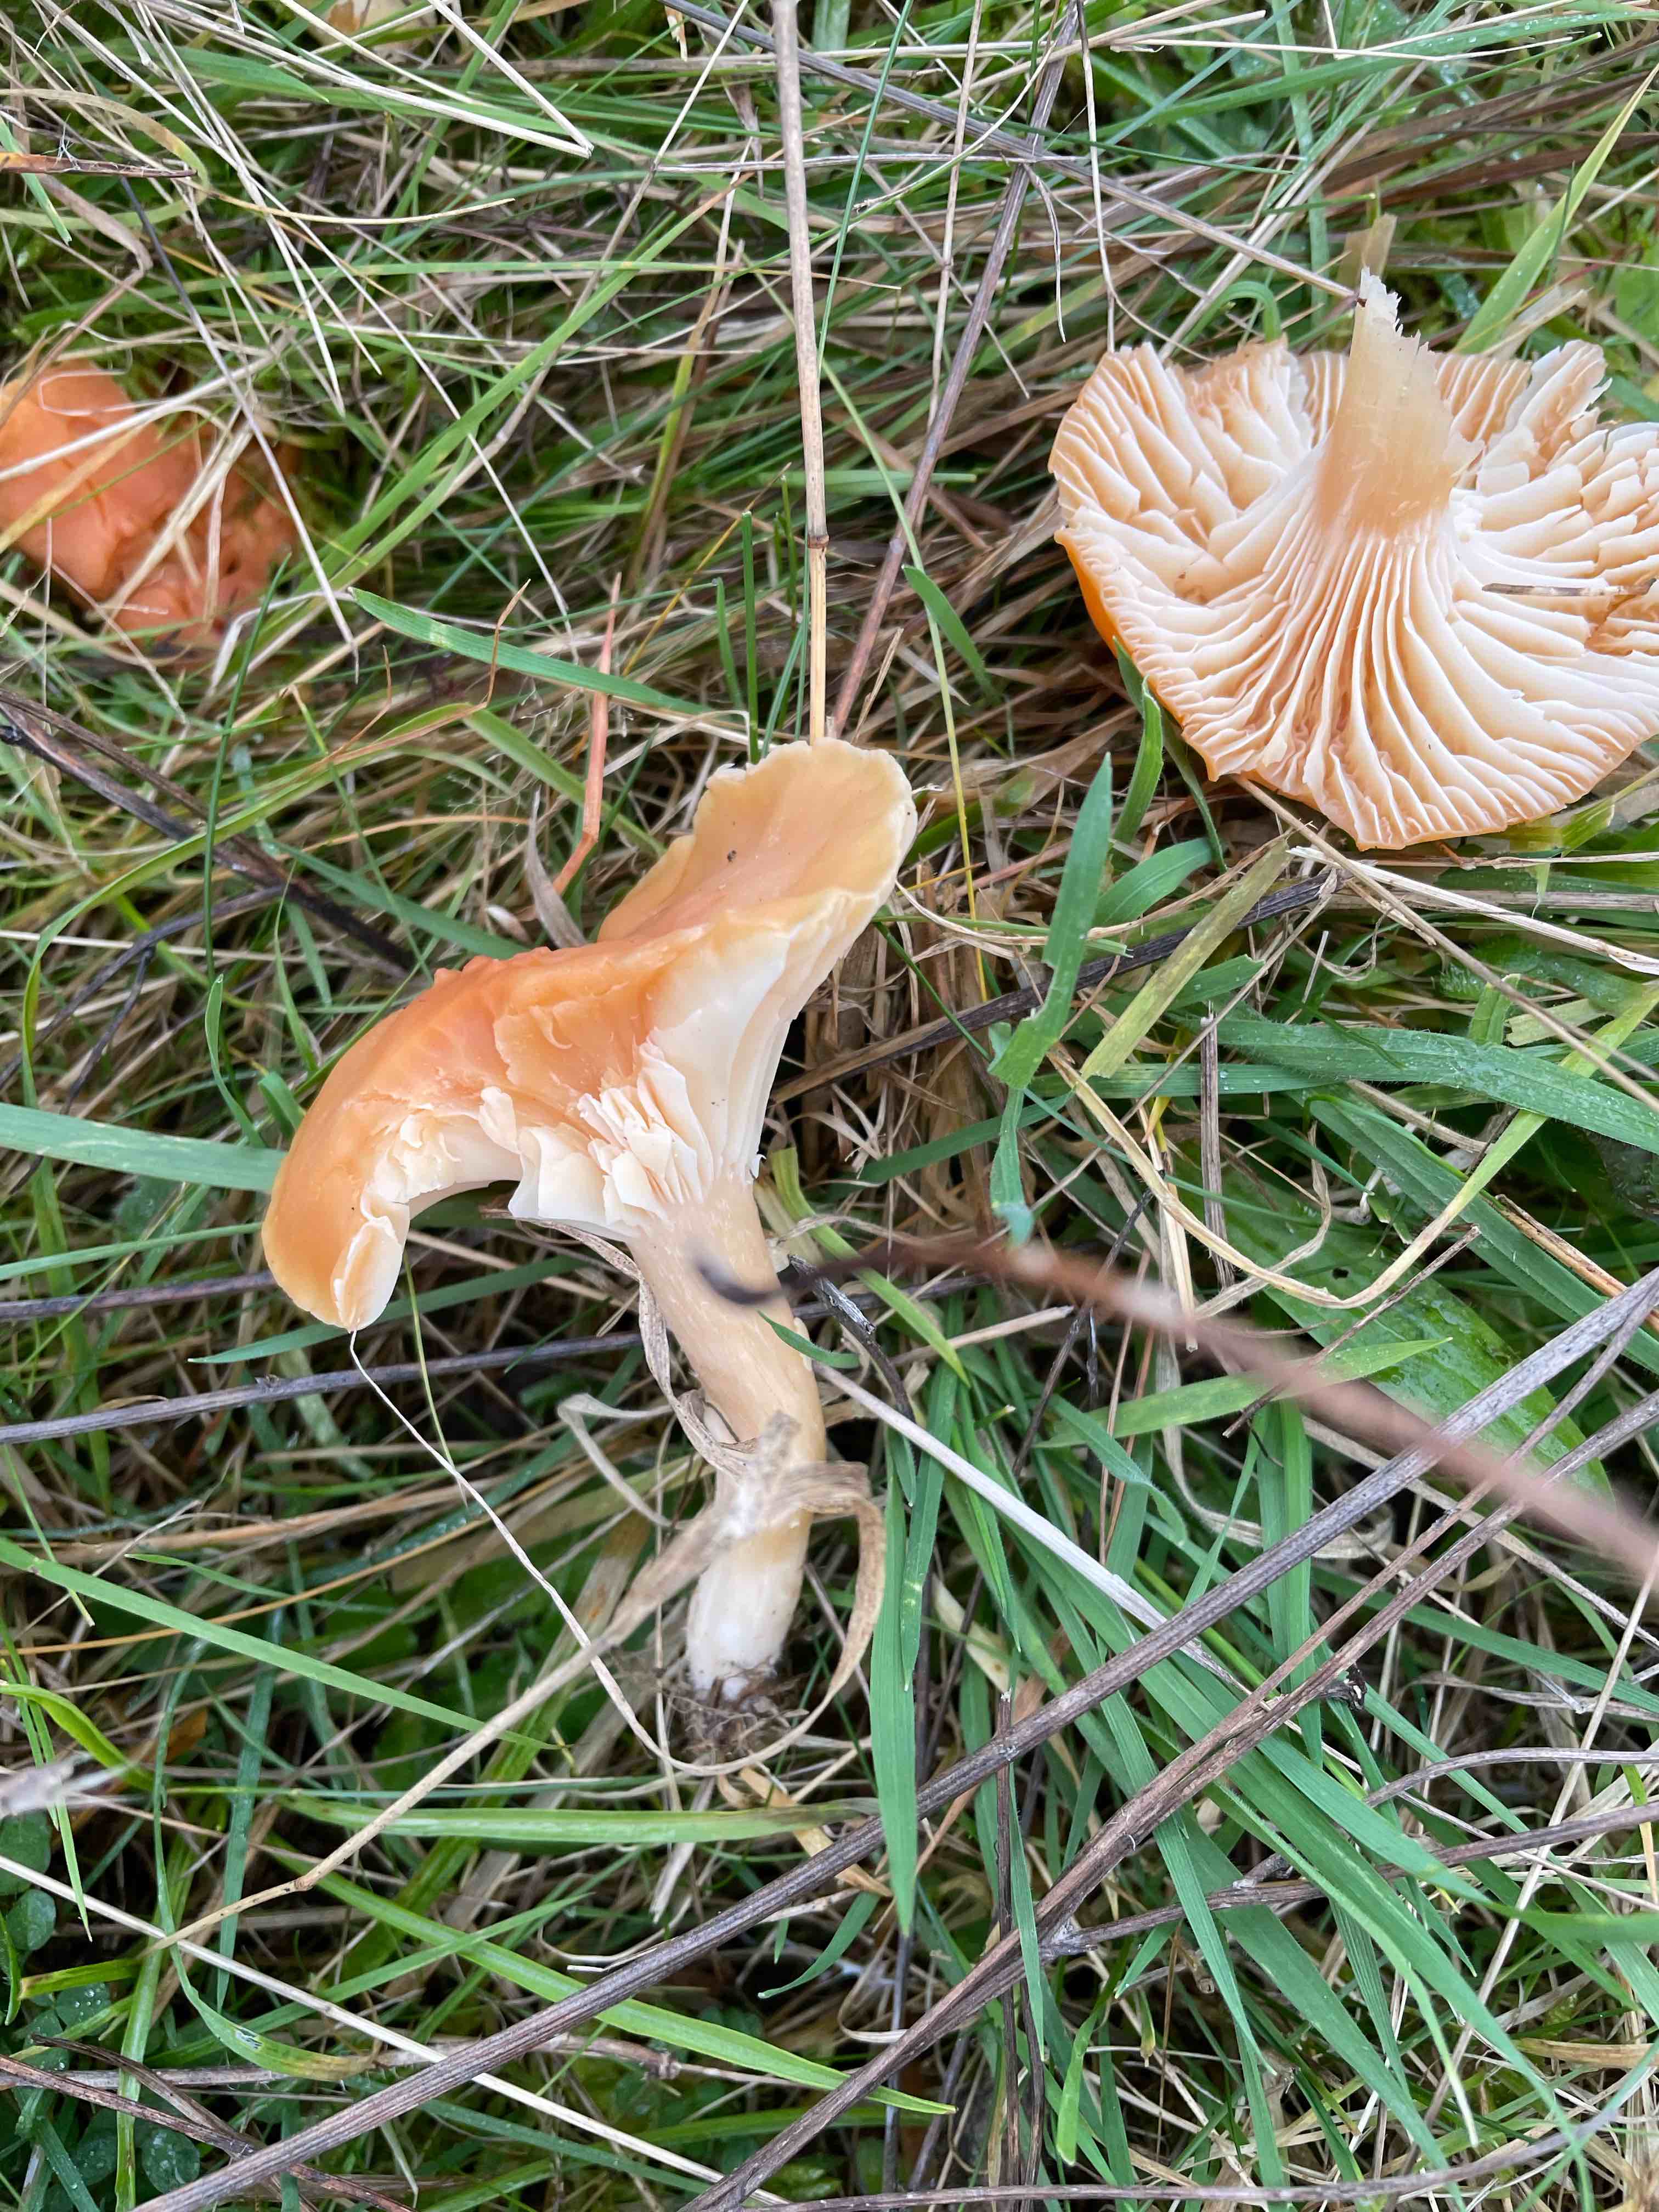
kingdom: Fungi
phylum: Basidiomycota
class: Agaricomycetes
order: Agaricales
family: Hygrophoraceae
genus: Cuphophyllus
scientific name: Cuphophyllus pratensis
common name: eng-vokshat
